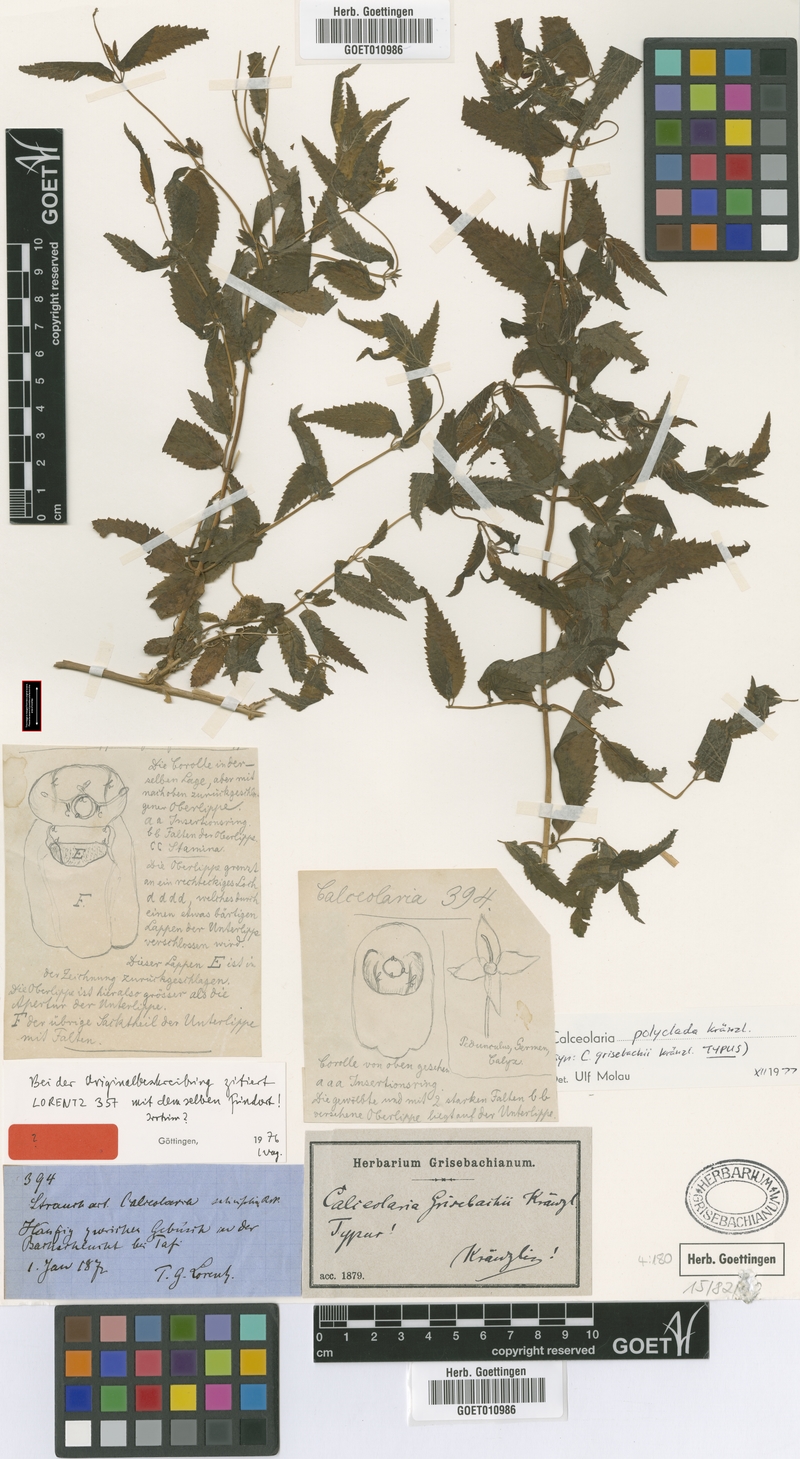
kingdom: Plantae
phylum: Tracheophyta
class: Magnoliopsida
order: Lamiales
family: Calceolariaceae
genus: Calceolaria
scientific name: Calceolaria polyclada
